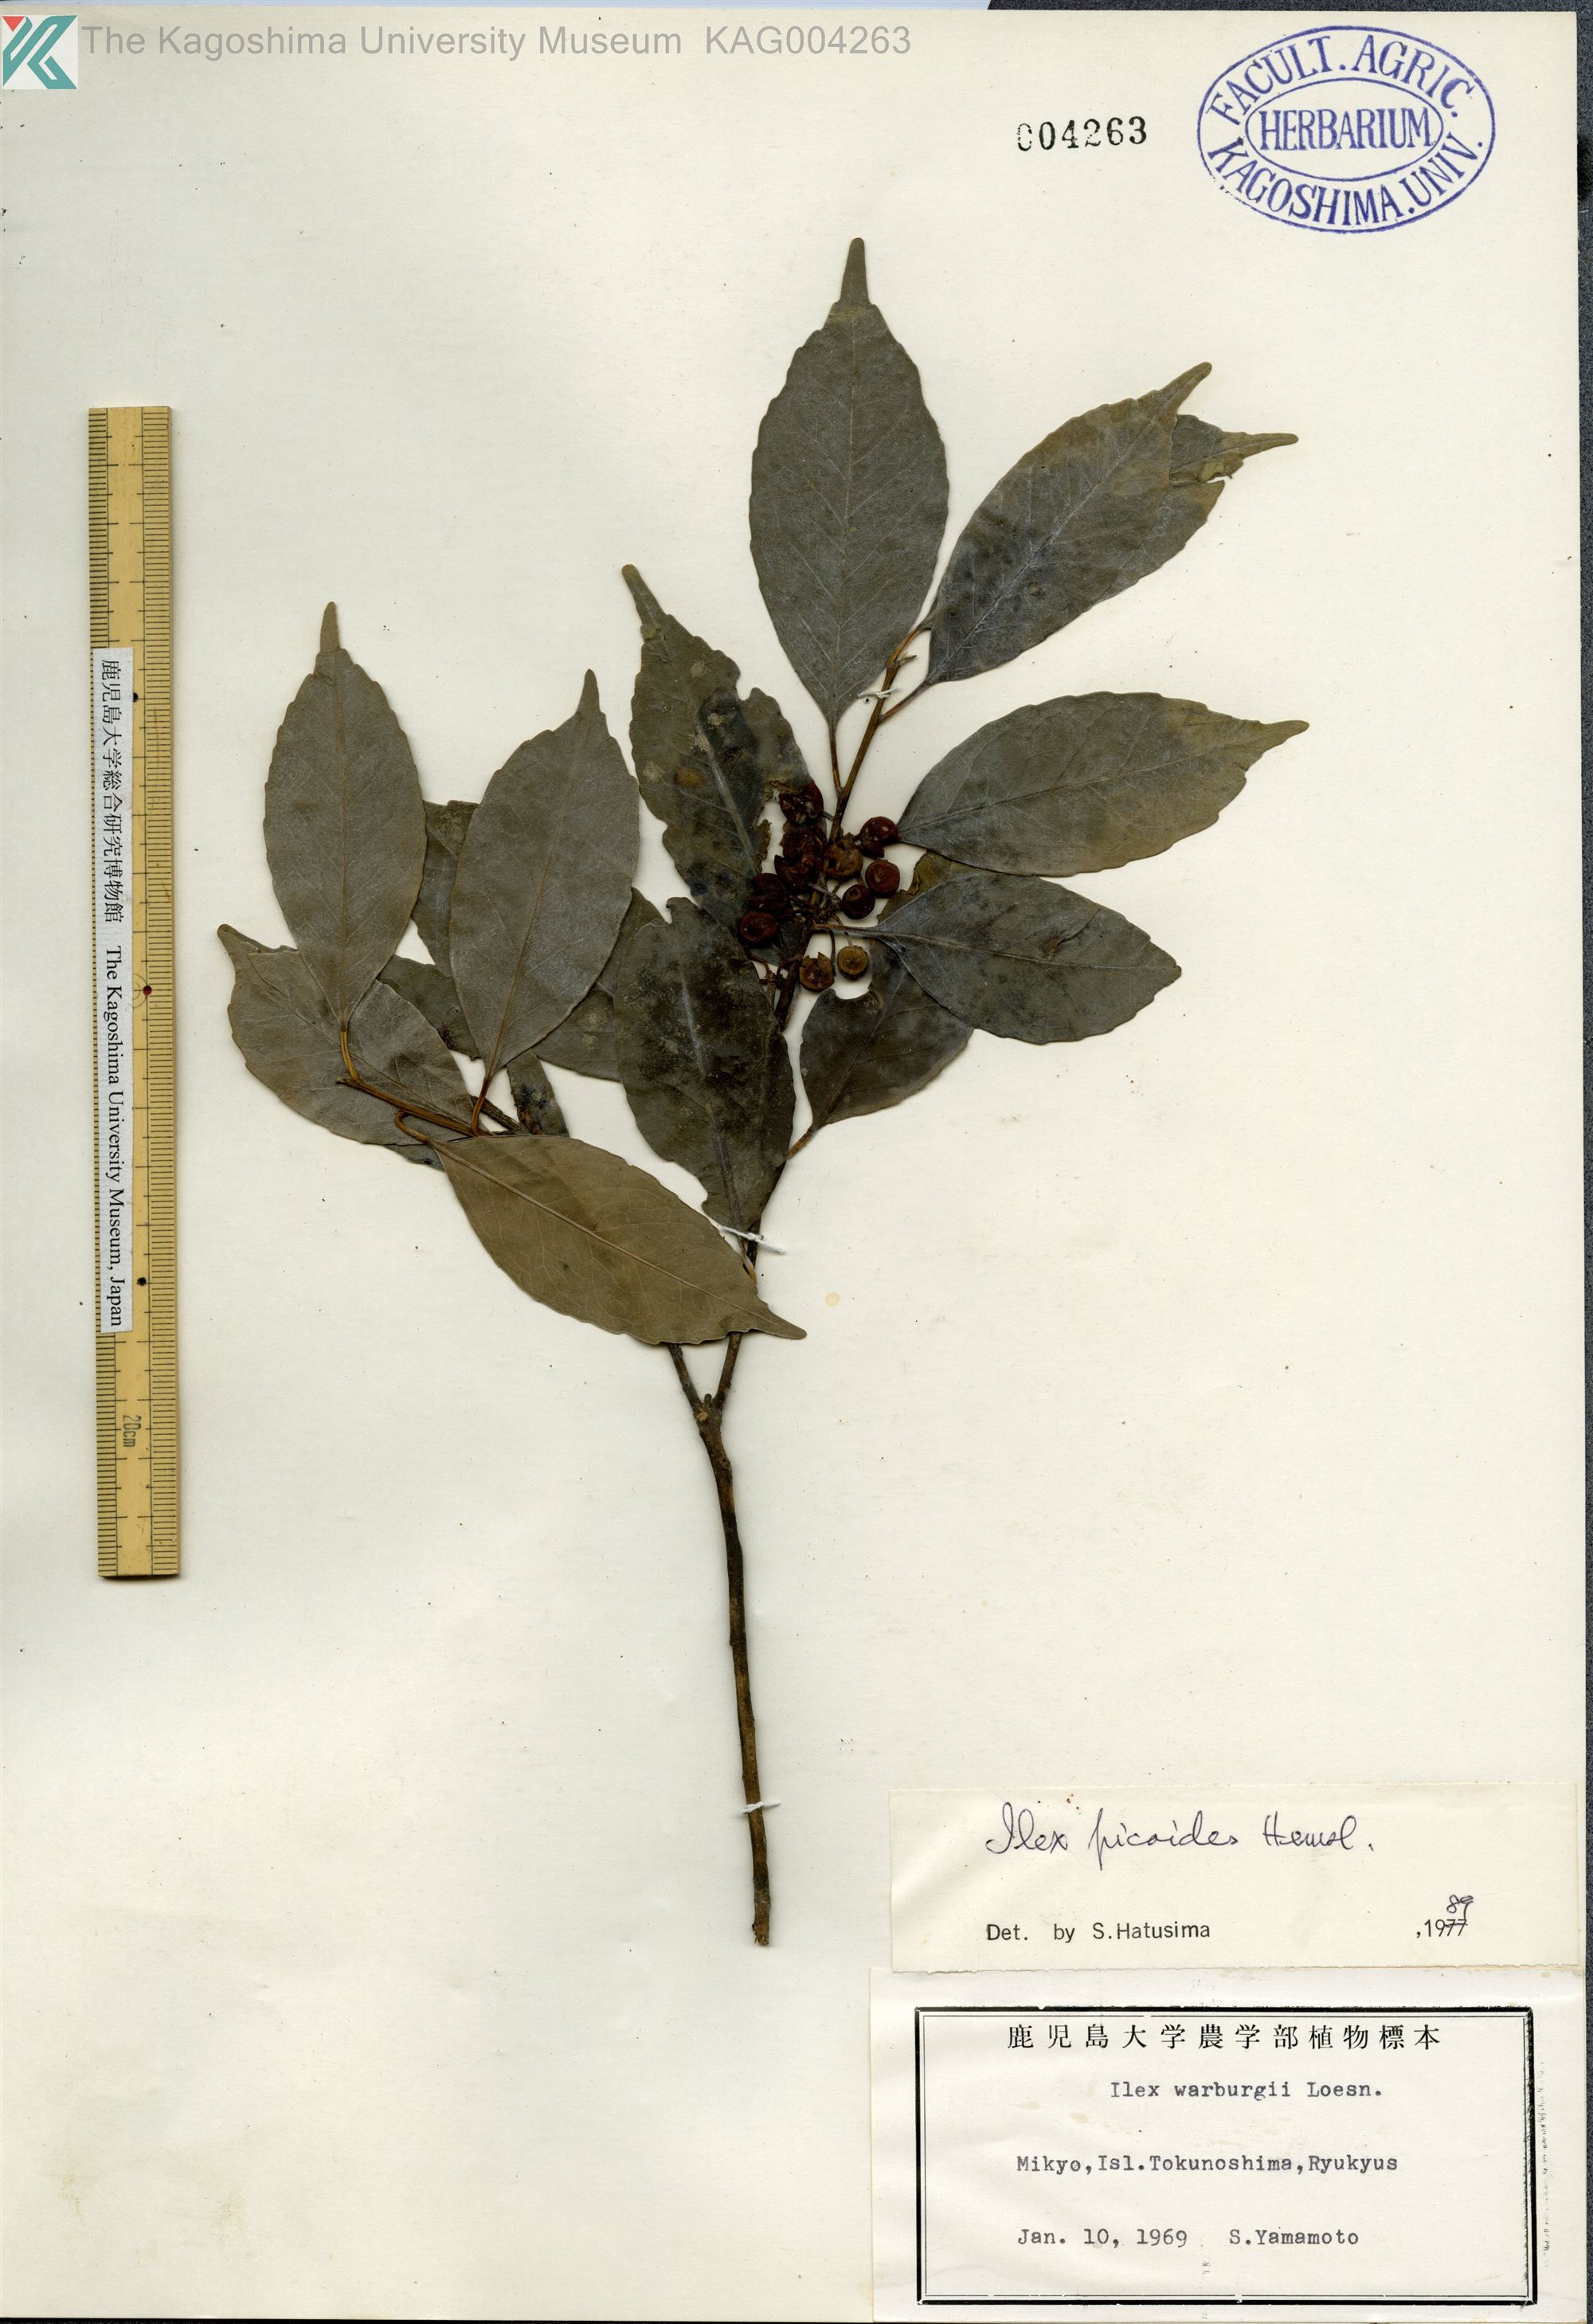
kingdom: Plantae
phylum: Tracheophyta
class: Magnoliopsida
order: Aquifoliales
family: Aquifoliaceae
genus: Ilex
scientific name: Ilex warburgii
